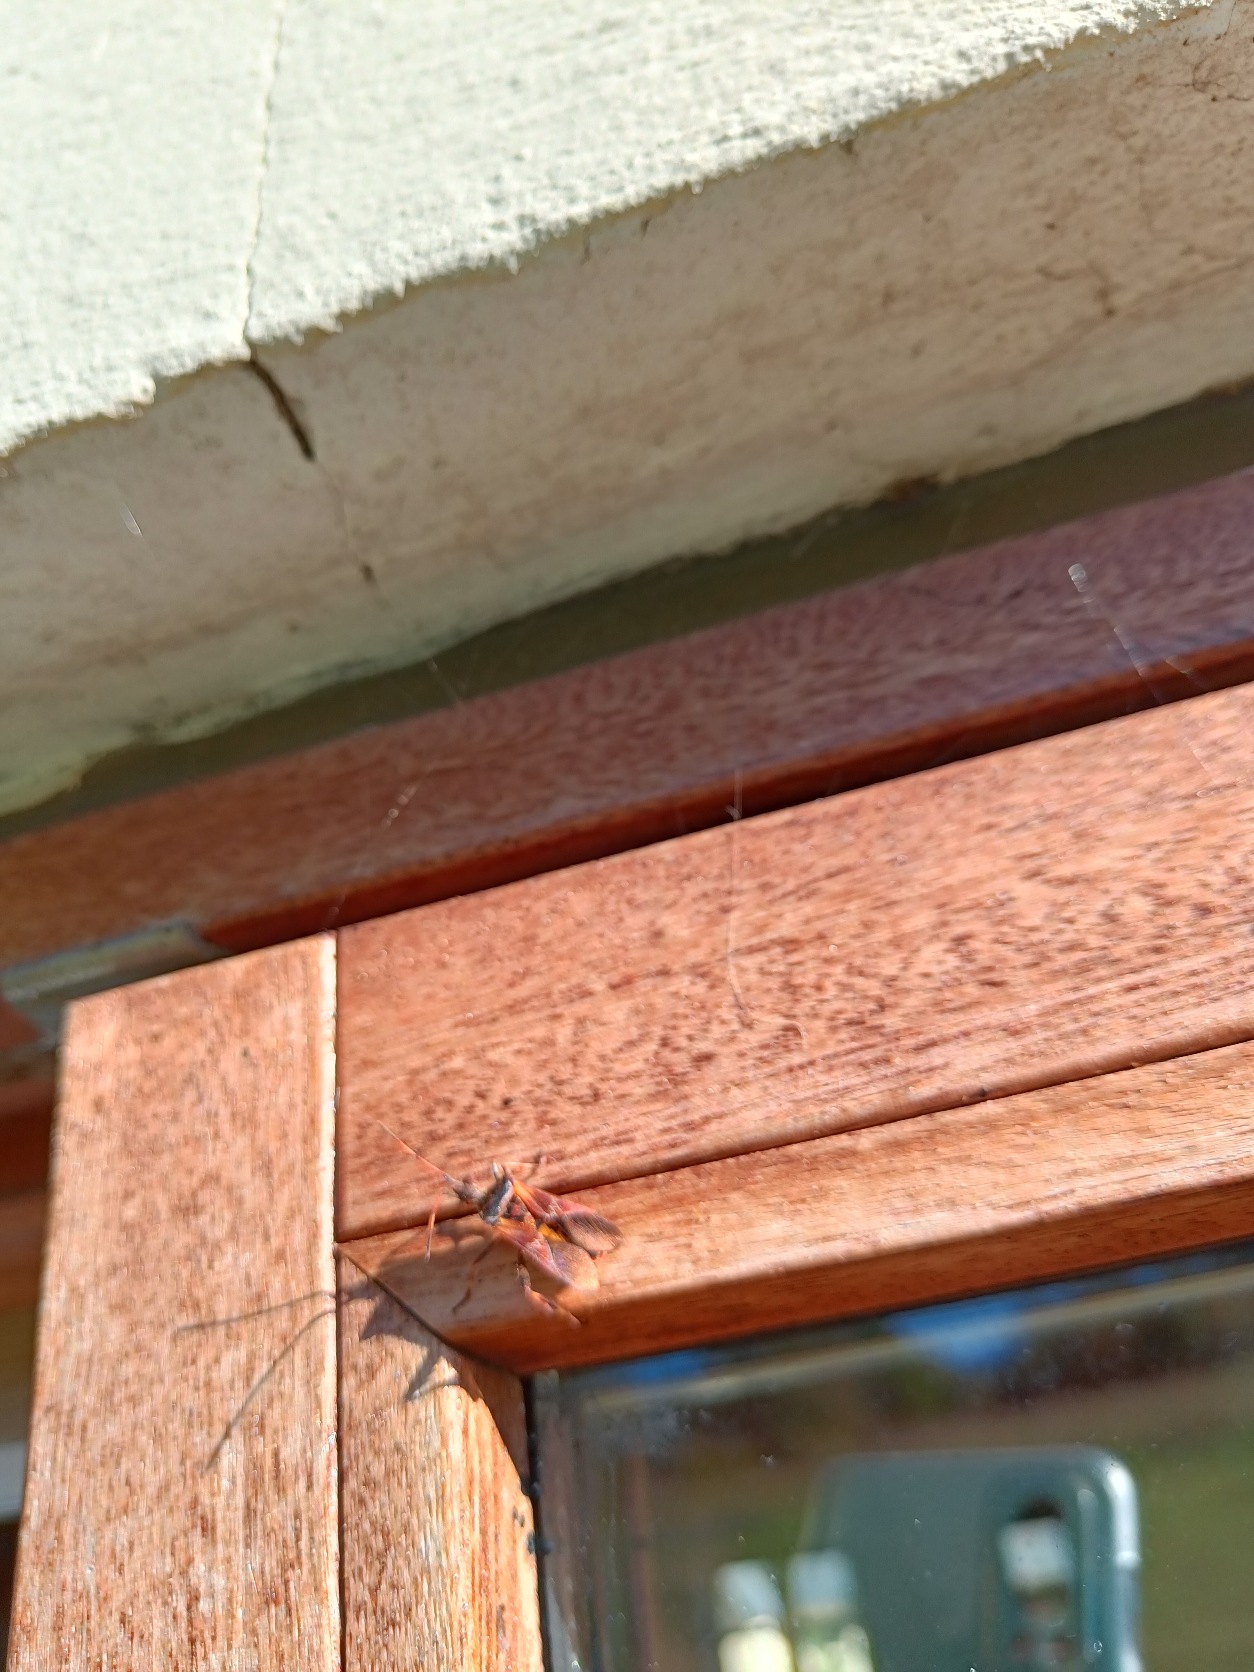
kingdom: Animalia
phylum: Arthropoda
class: Insecta
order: Hemiptera
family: Coreidae
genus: Leptoglossus
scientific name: Leptoglossus occidentalis
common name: Amerikansk fyrretæge
